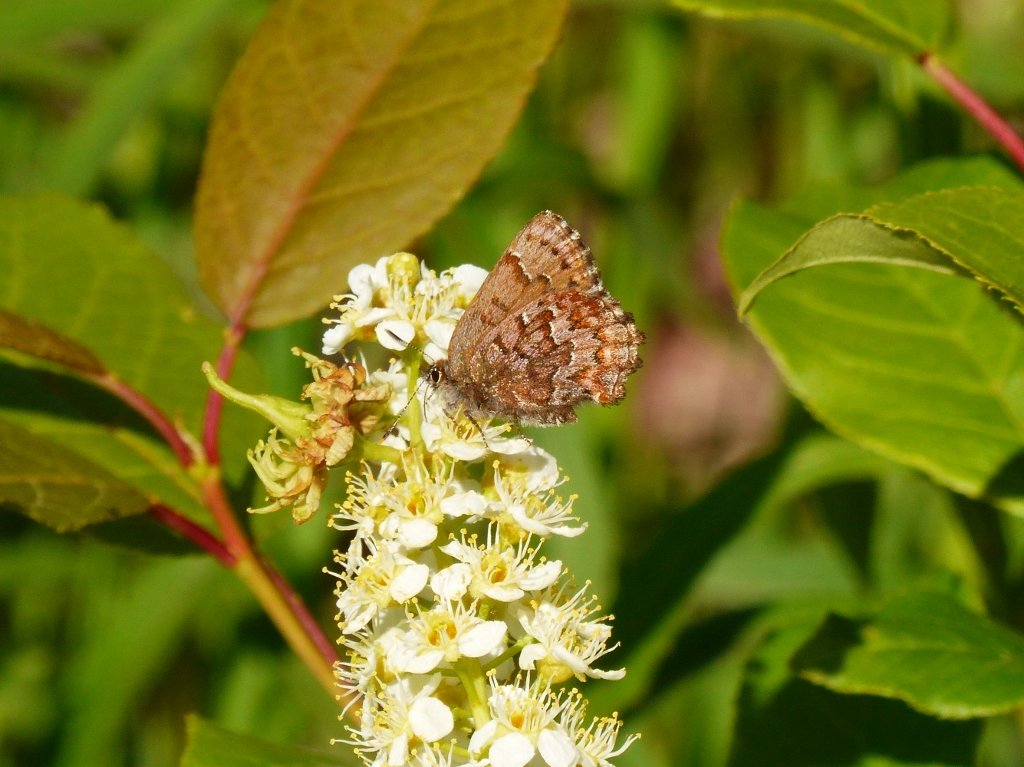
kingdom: Animalia
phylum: Arthropoda
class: Insecta
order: Lepidoptera
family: Lycaenidae
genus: Incisalia
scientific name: Incisalia niphon
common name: Eastern Pine Elfin
